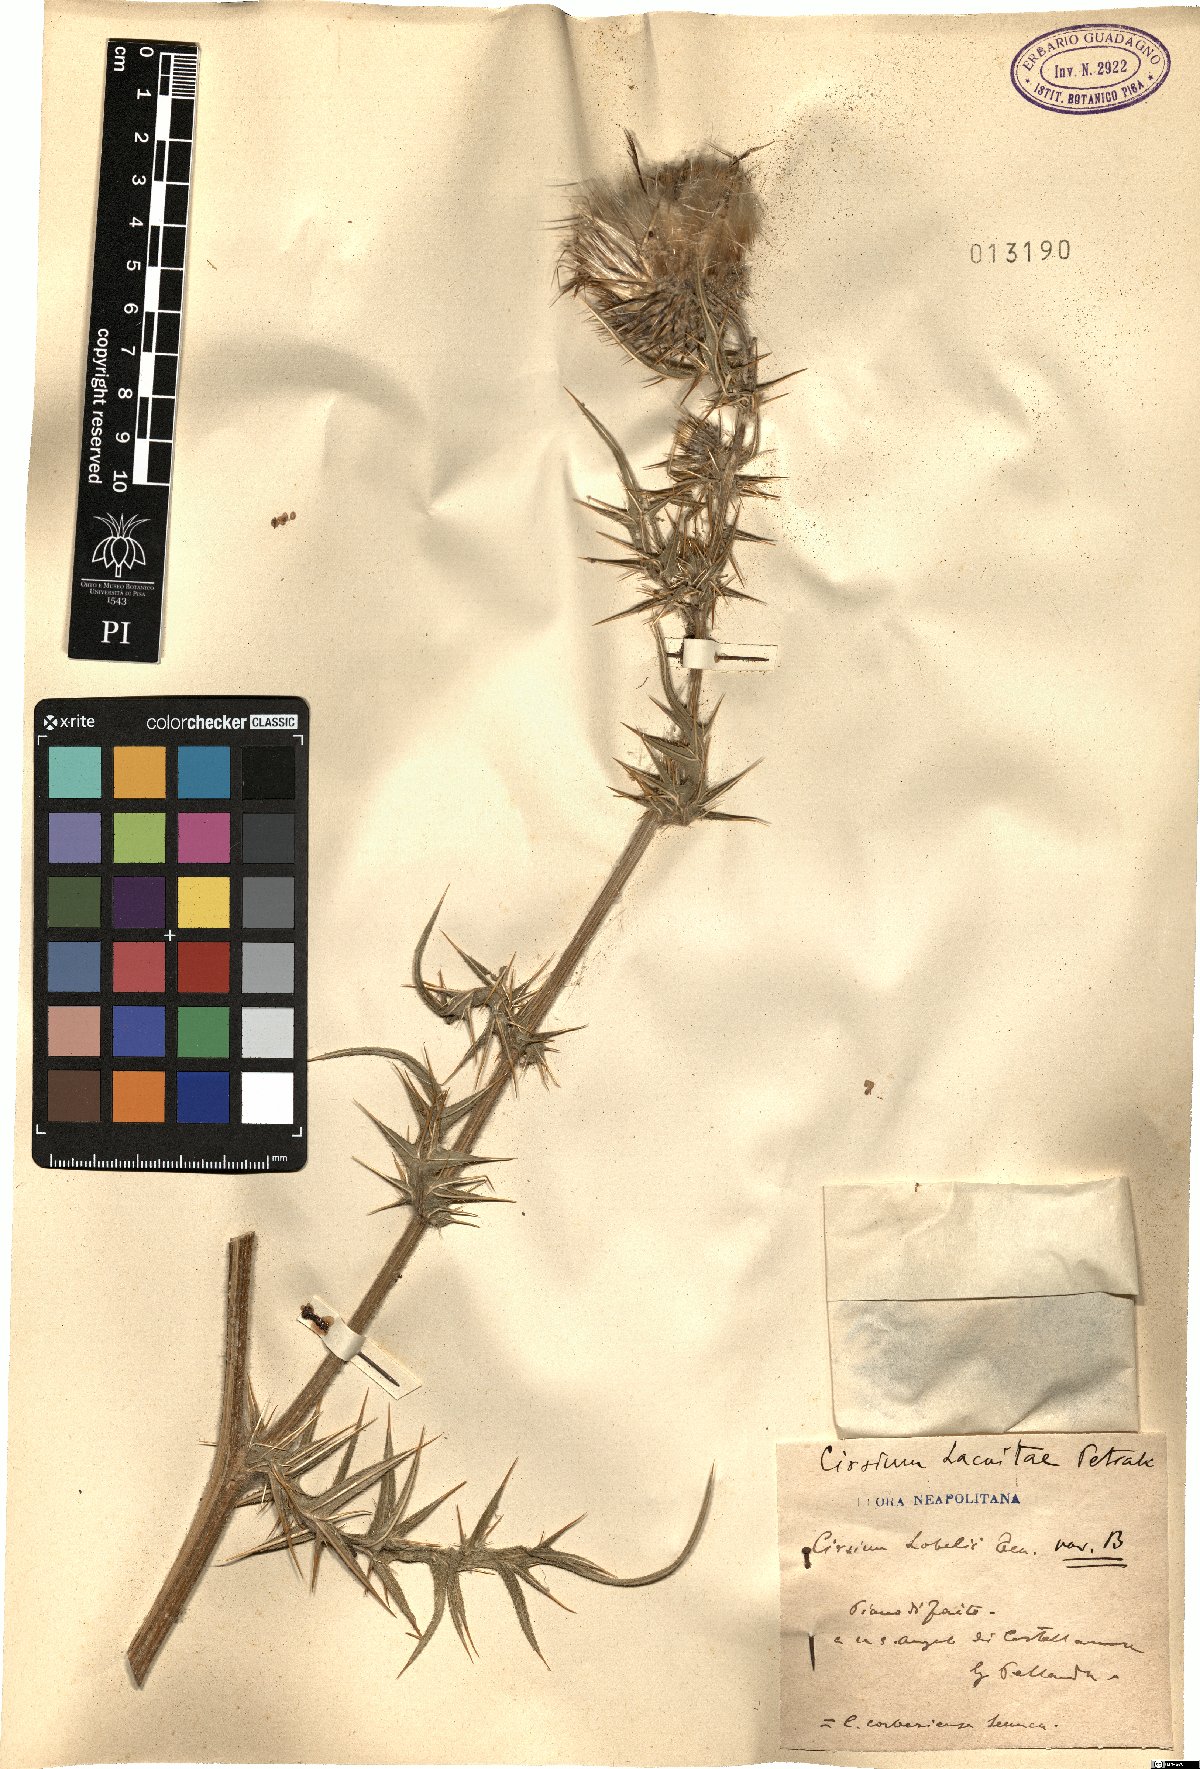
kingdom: Plantae
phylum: Tracheophyta
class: Magnoliopsida
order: Asterales
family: Asteraceae
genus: Lophiolepis
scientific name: Lophiolepis lacaitae
